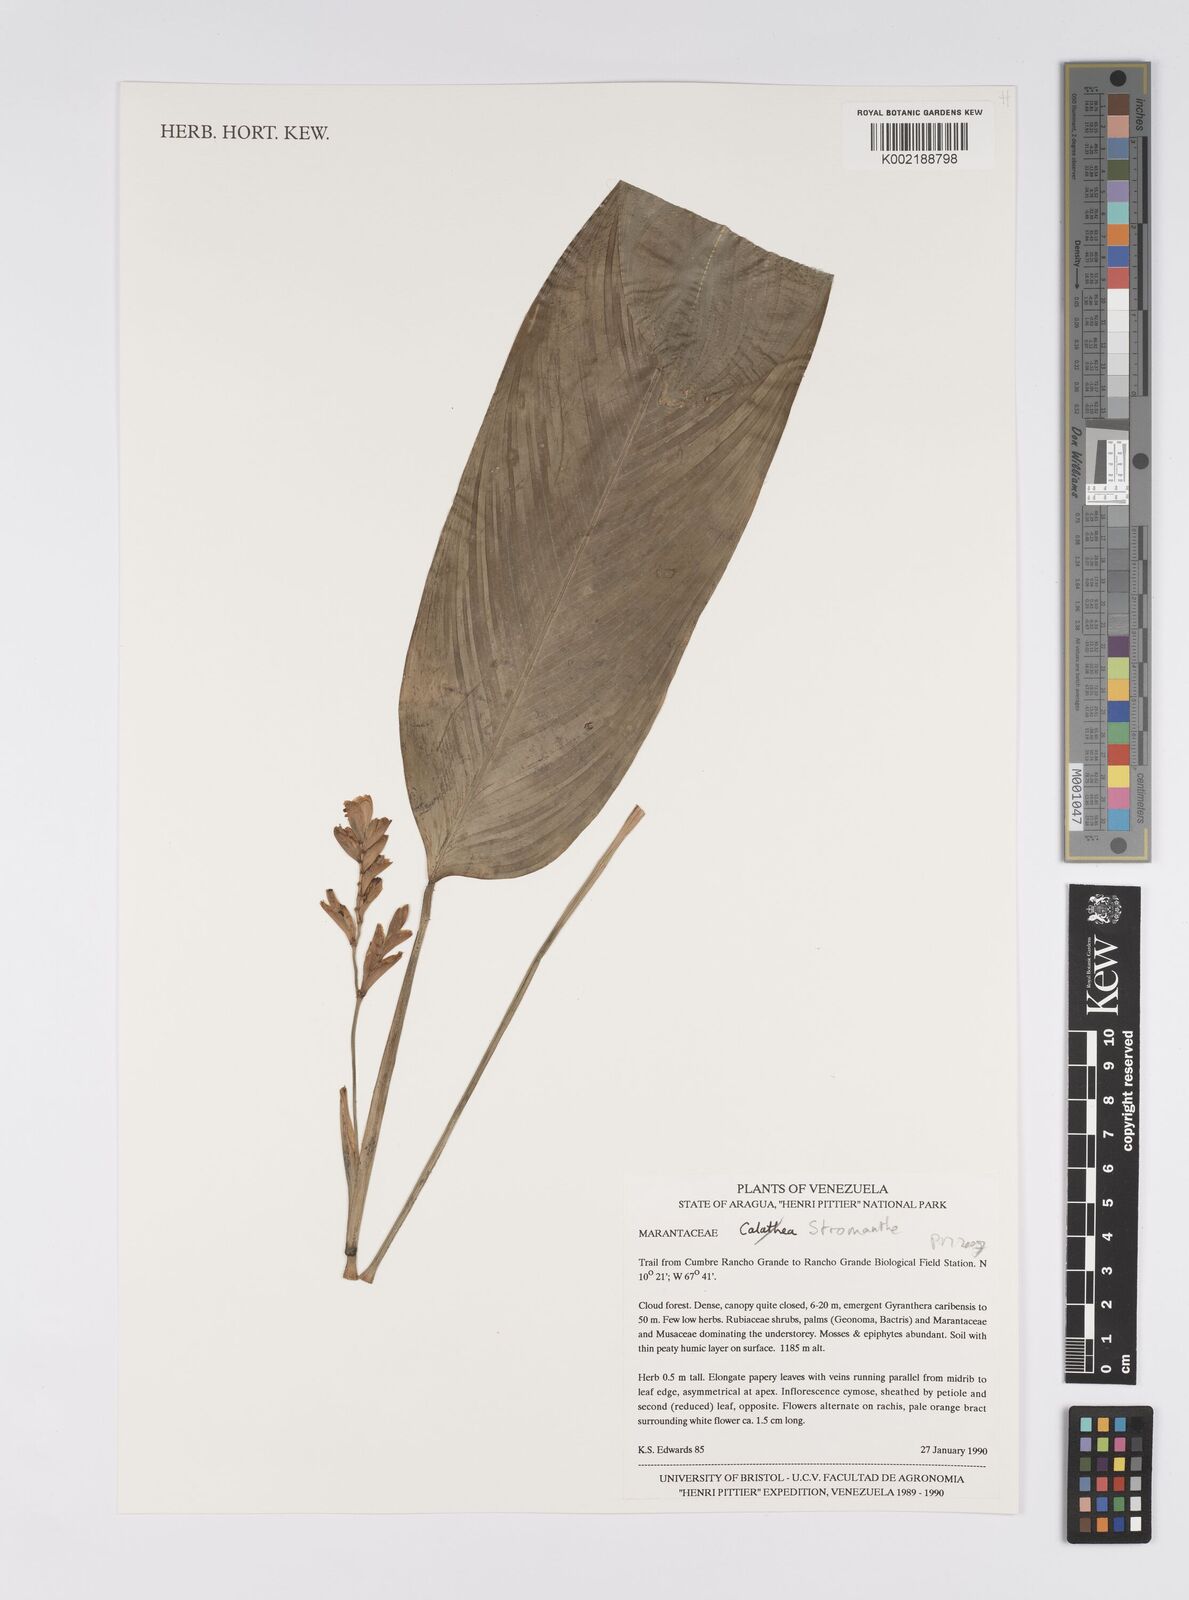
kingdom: Plantae
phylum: Tracheophyta
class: Liliopsida
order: Zingiberales
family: Marantaceae
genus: Stromanthe
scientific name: Stromanthe
